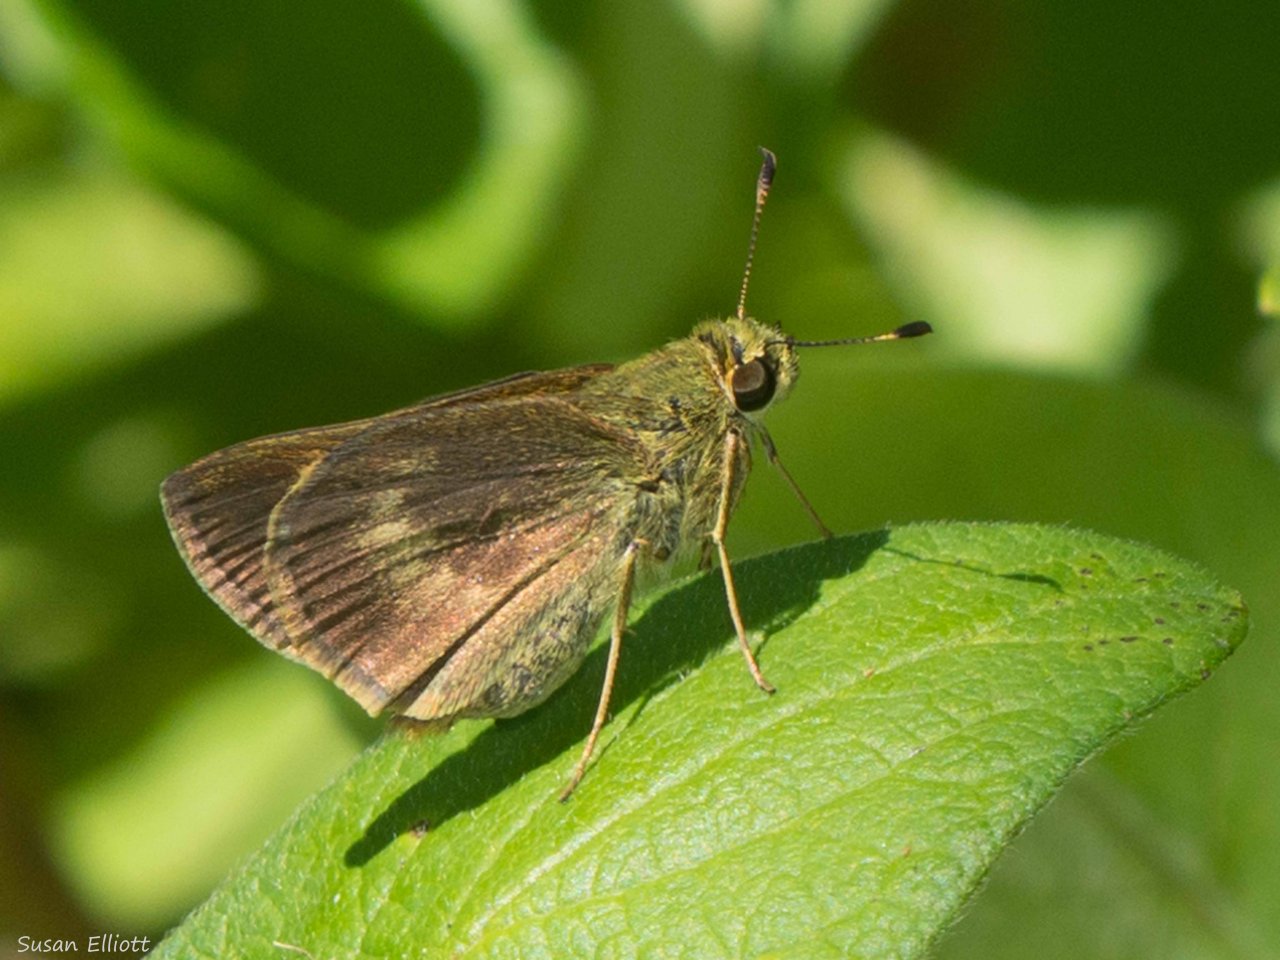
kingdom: Animalia
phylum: Arthropoda
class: Insecta
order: Lepidoptera
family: Hesperiidae
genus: Polites
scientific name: Polites egeremet
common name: Northern Broken-Dash
